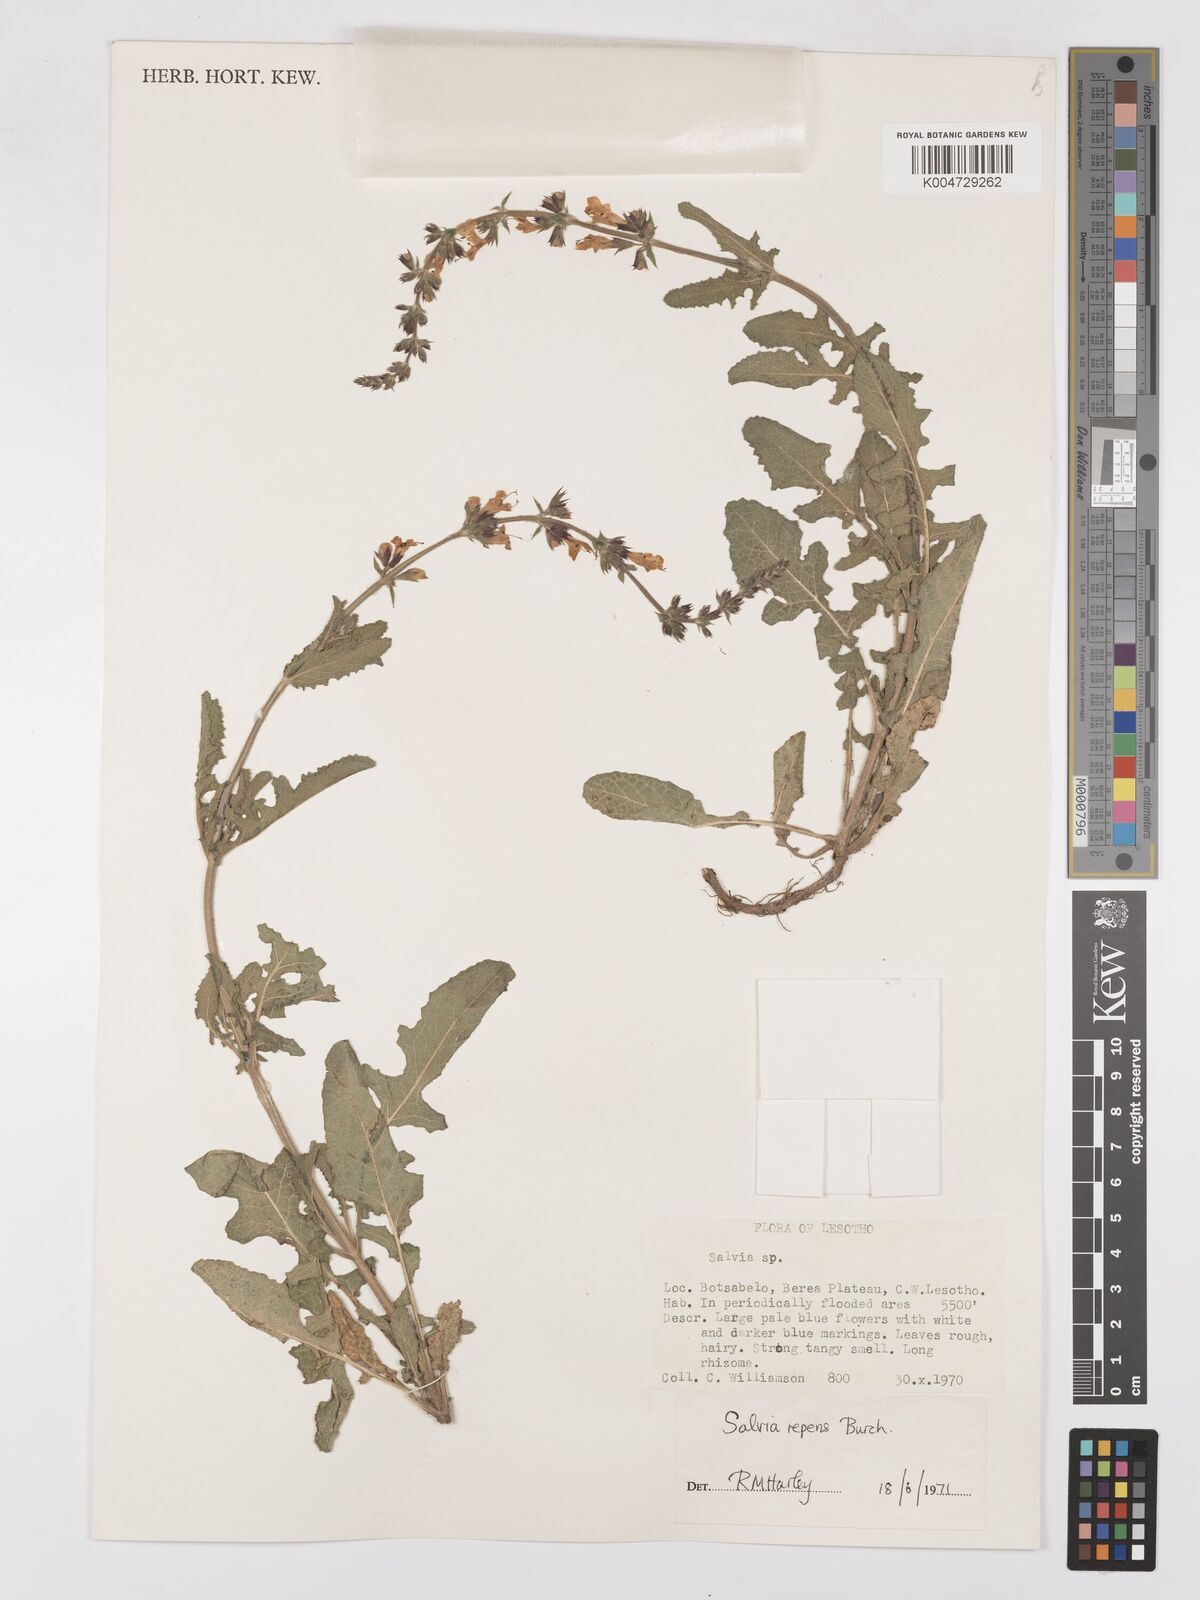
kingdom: Plantae
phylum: Tracheophyta
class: Magnoliopsida
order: Lamiales
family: Lamiaceae
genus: Salvia
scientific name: Salvia repens
